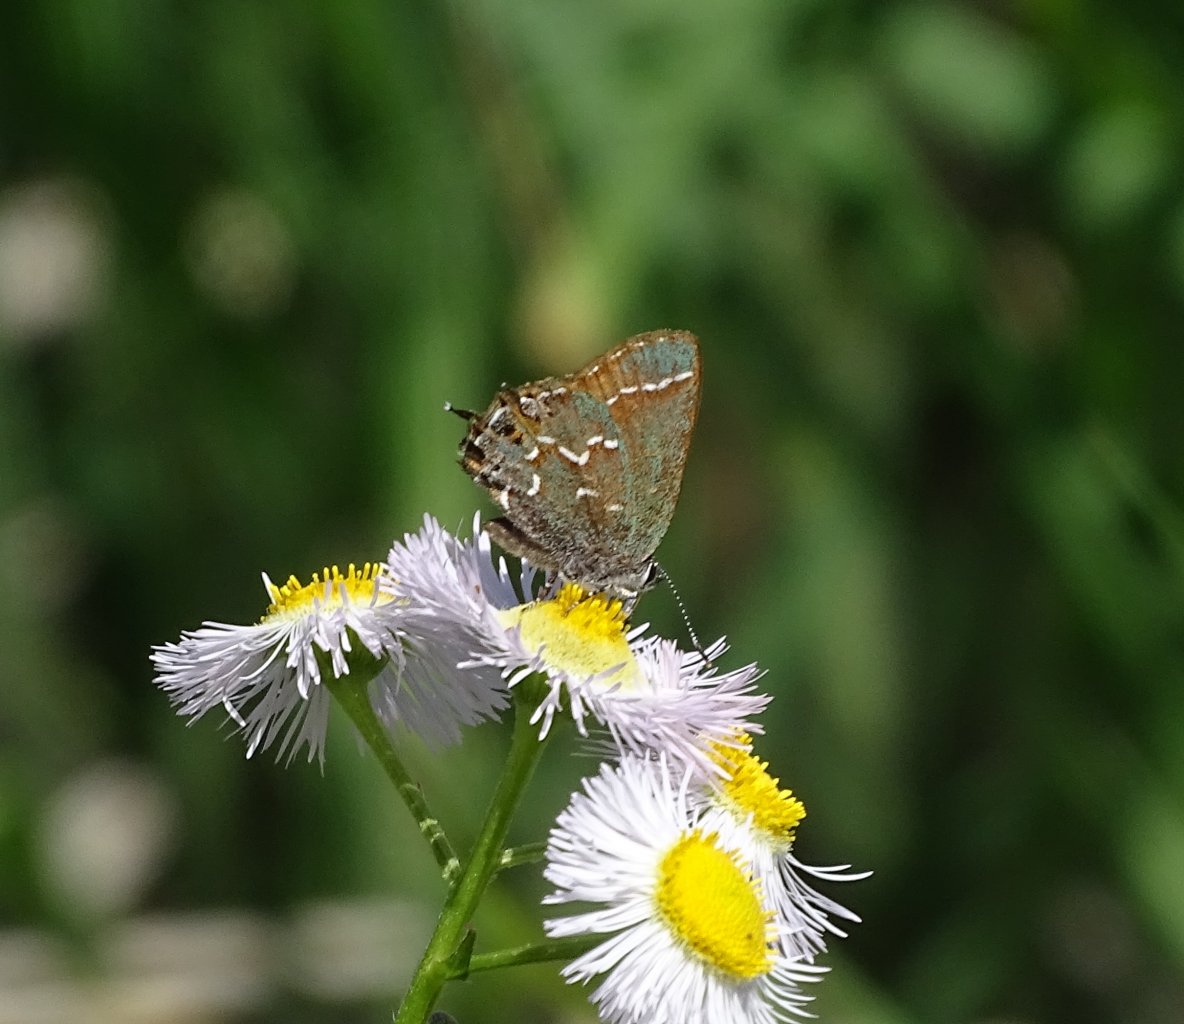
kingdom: Animalia
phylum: Arthropoda
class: Insecta
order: Lepidoptera
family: Lycaenidae
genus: Mitoura
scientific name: Mitoura gryneus
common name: Juniper Hairstreak
